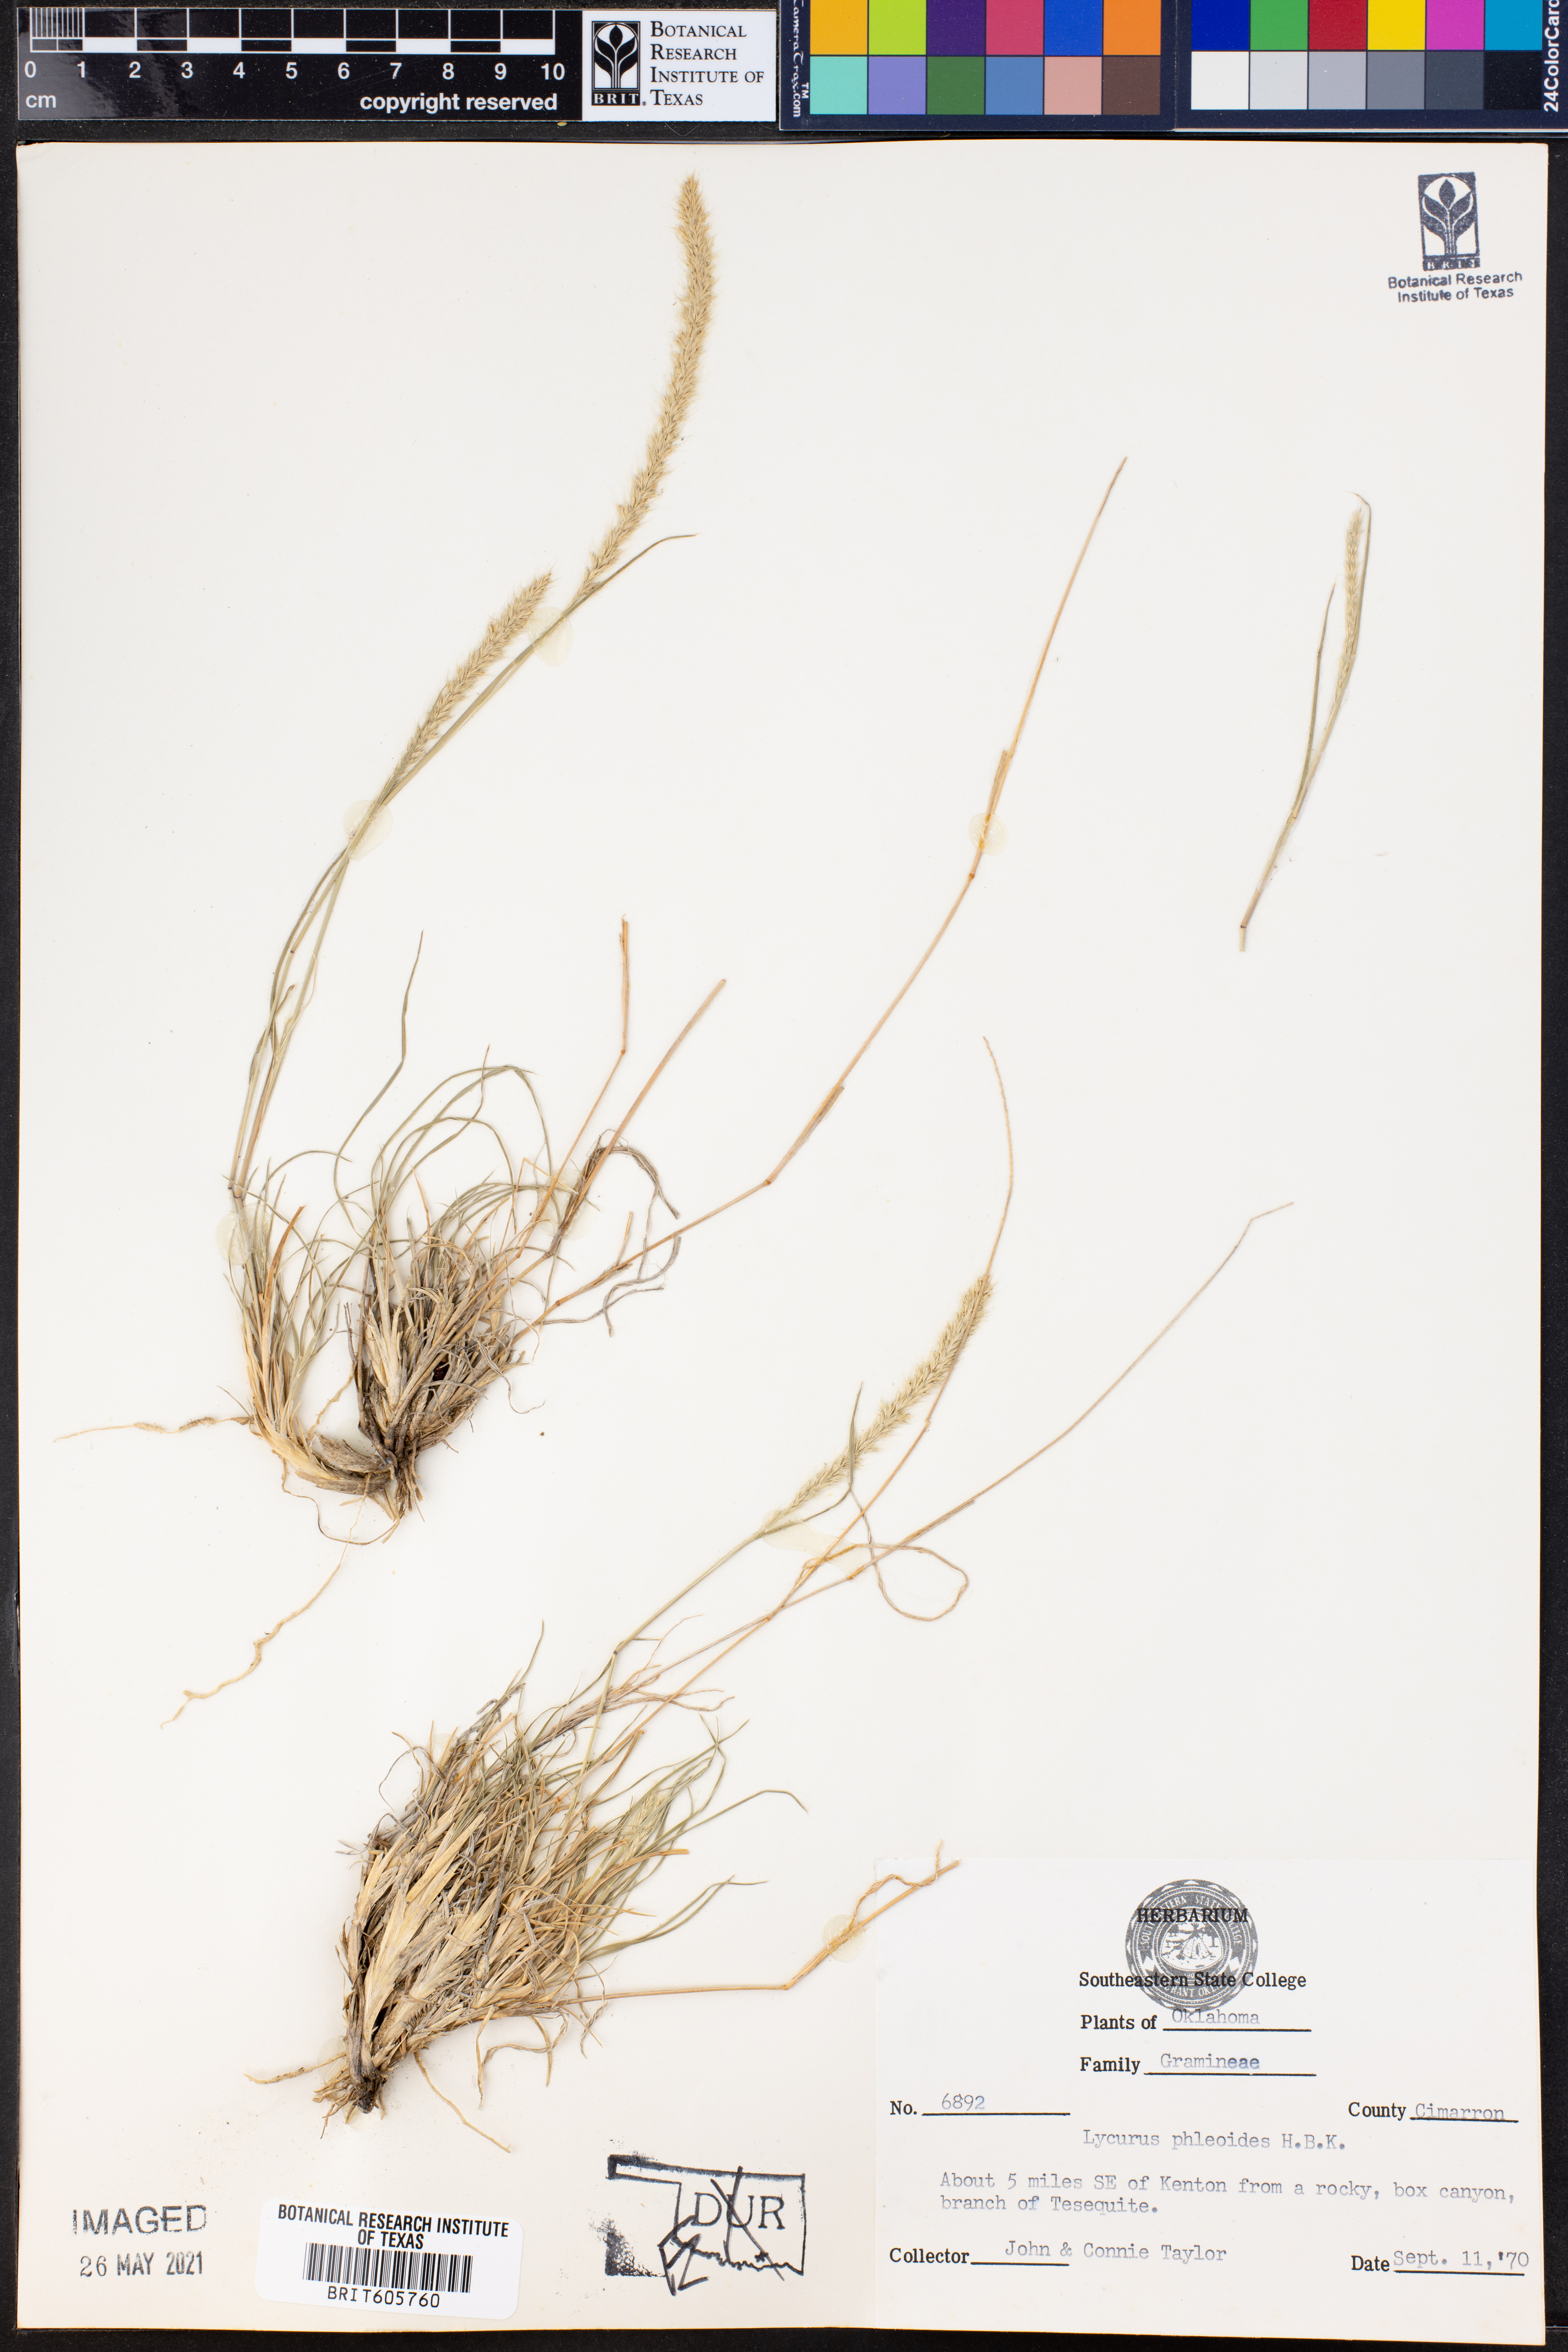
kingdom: Plantae
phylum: Tracheophyta
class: Liliopsida
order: Poales
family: Poaceae
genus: Muhlenbergia
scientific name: Muhlenbergia phleoides
